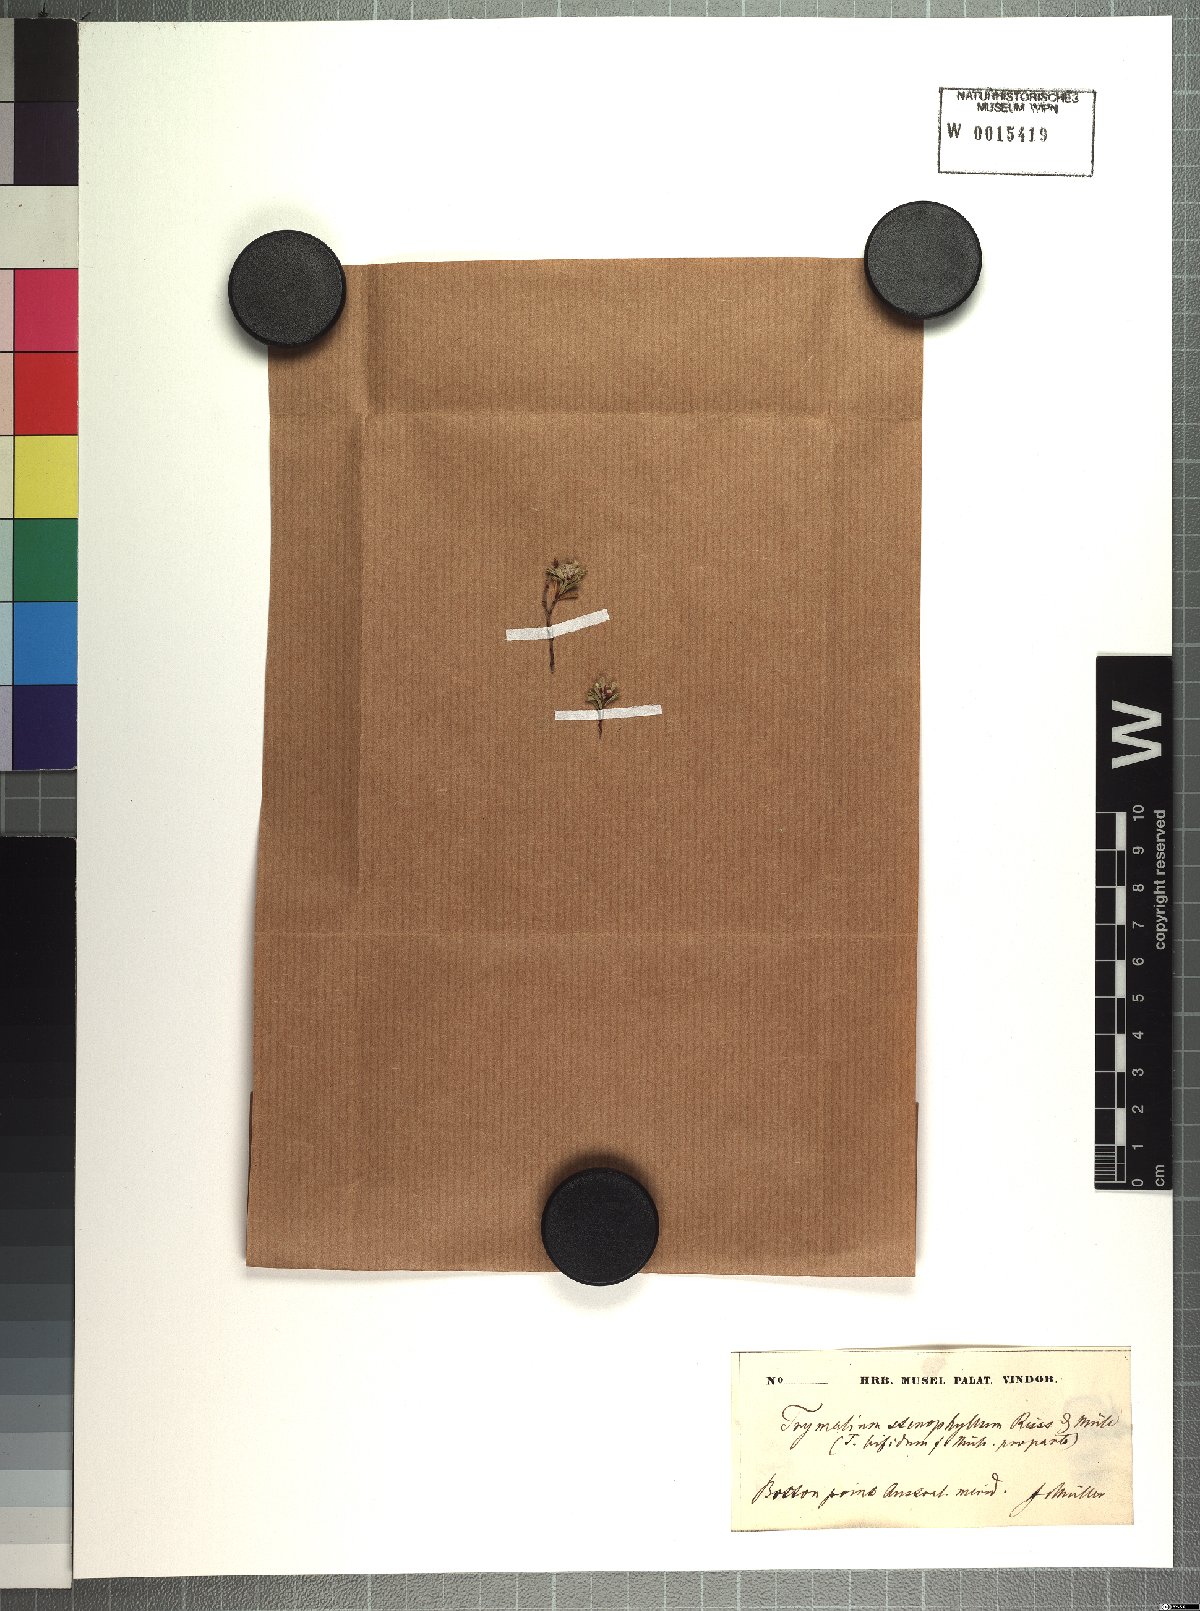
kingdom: Plantae
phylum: Tracheophyta
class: Magnoliopsida
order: Rosales
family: Rhamnaceae
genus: Spyridium
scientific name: Spyridium bifidum
